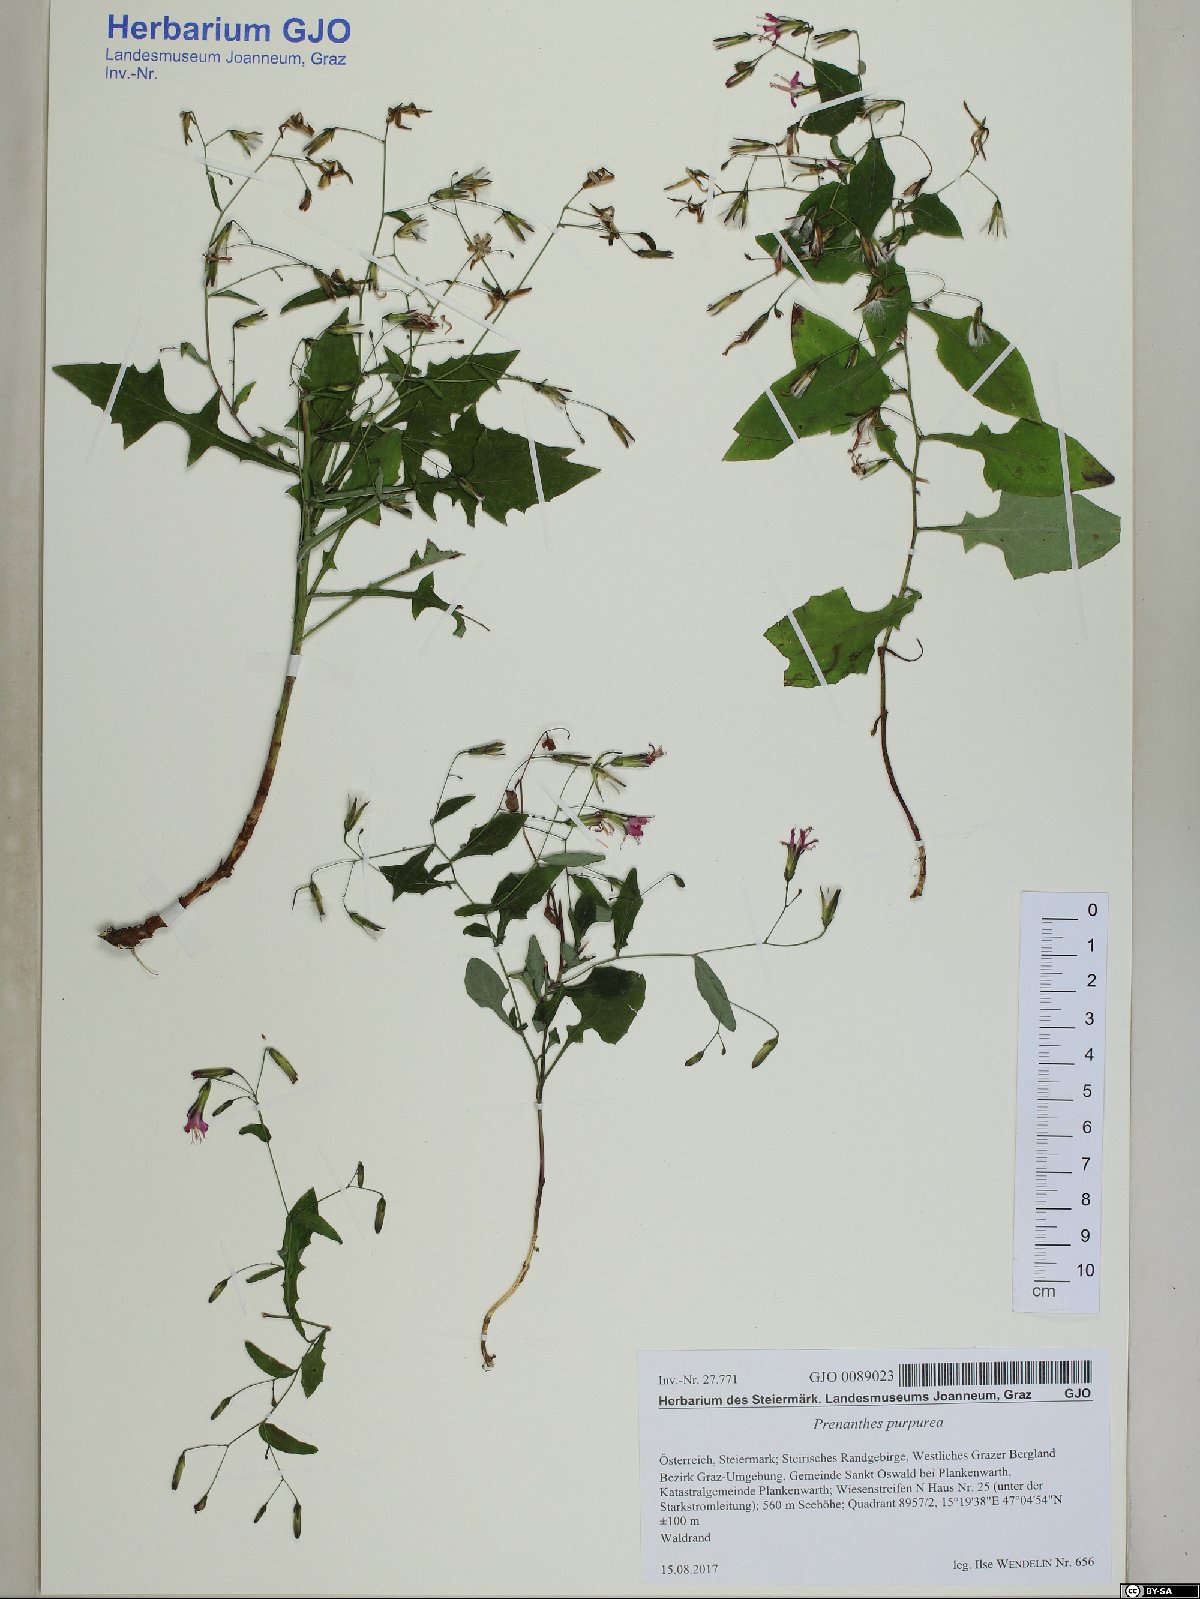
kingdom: Plantae
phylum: Tracheophyta
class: Magnoliopsida
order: Asterales
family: Asteraceae
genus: Prenanthes
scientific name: Prenanthes purpurea
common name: Purple lettuce
